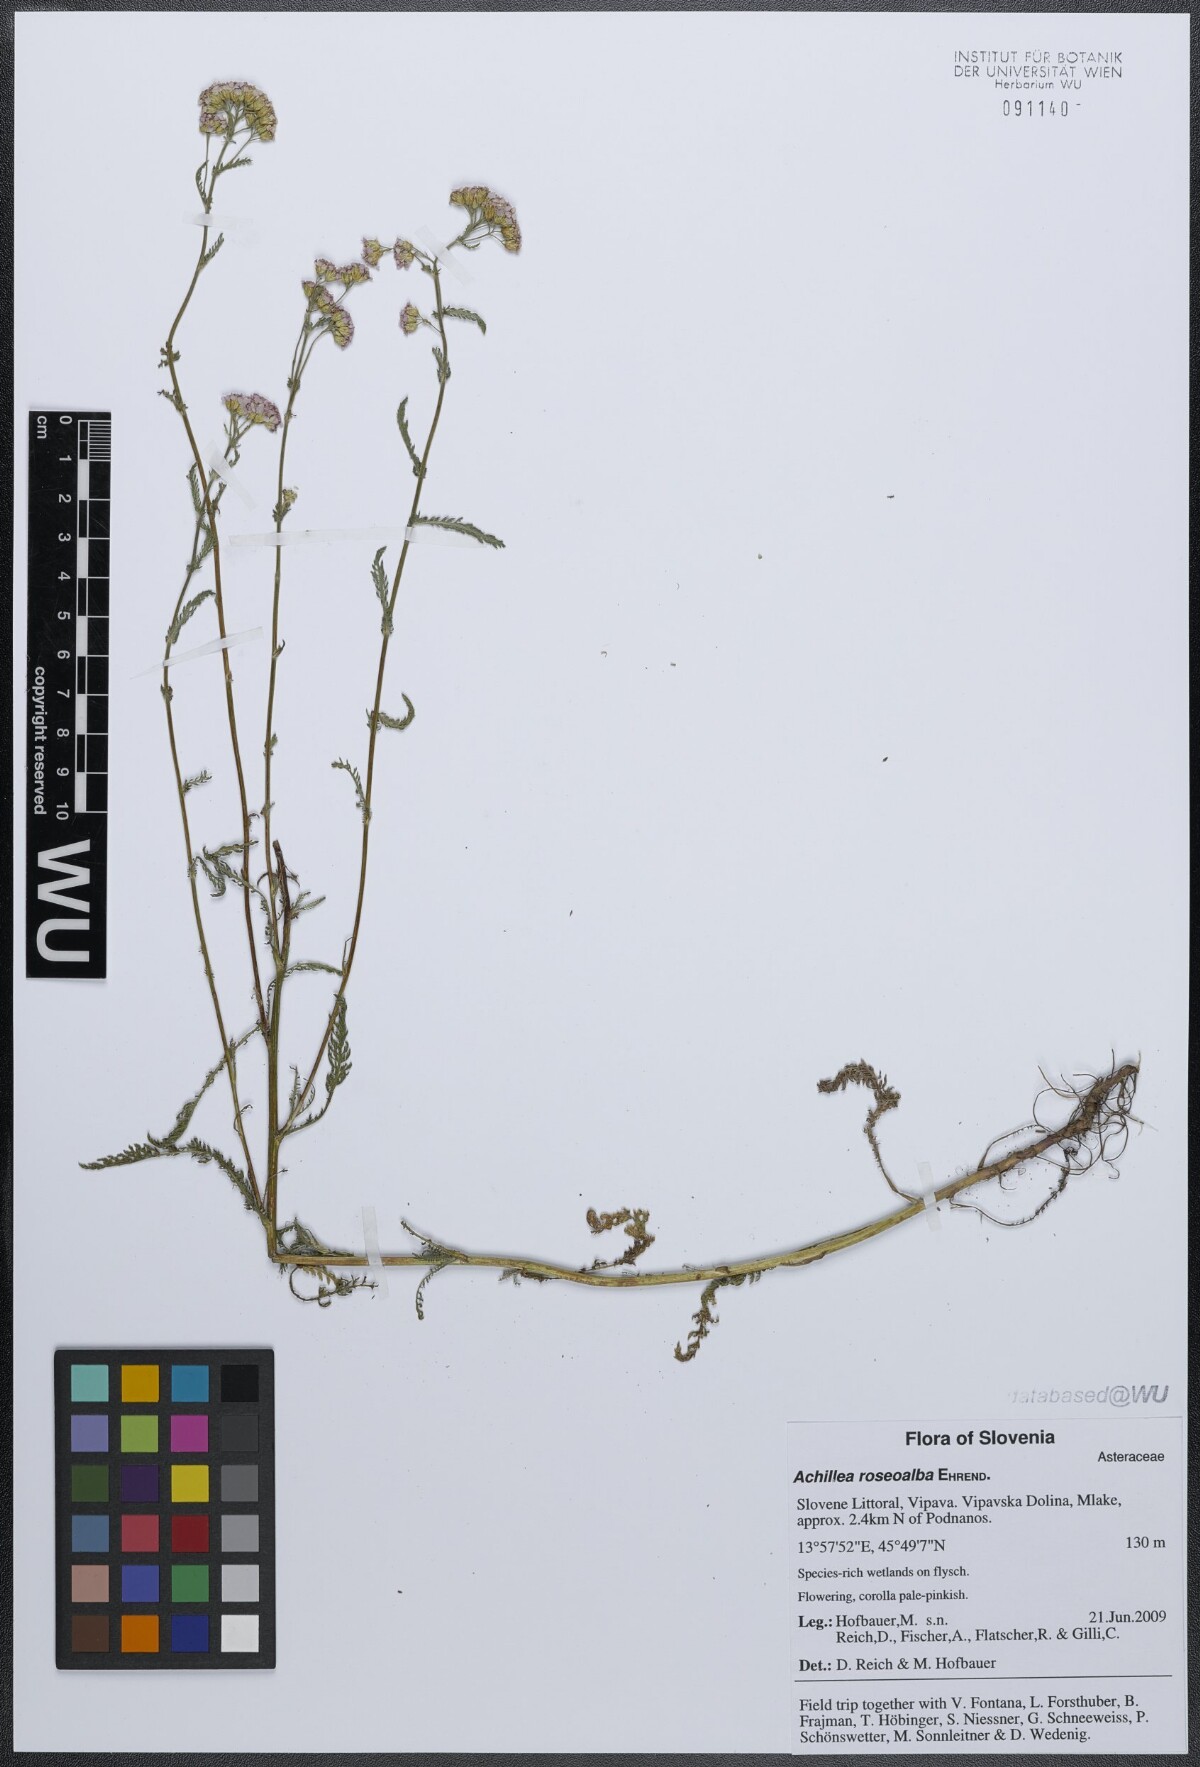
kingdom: Plantae
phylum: Tracheophyta
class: Magnoliopsida
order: Asterales
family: Asteraceae
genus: Achillea
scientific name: Achillea roseoalba
